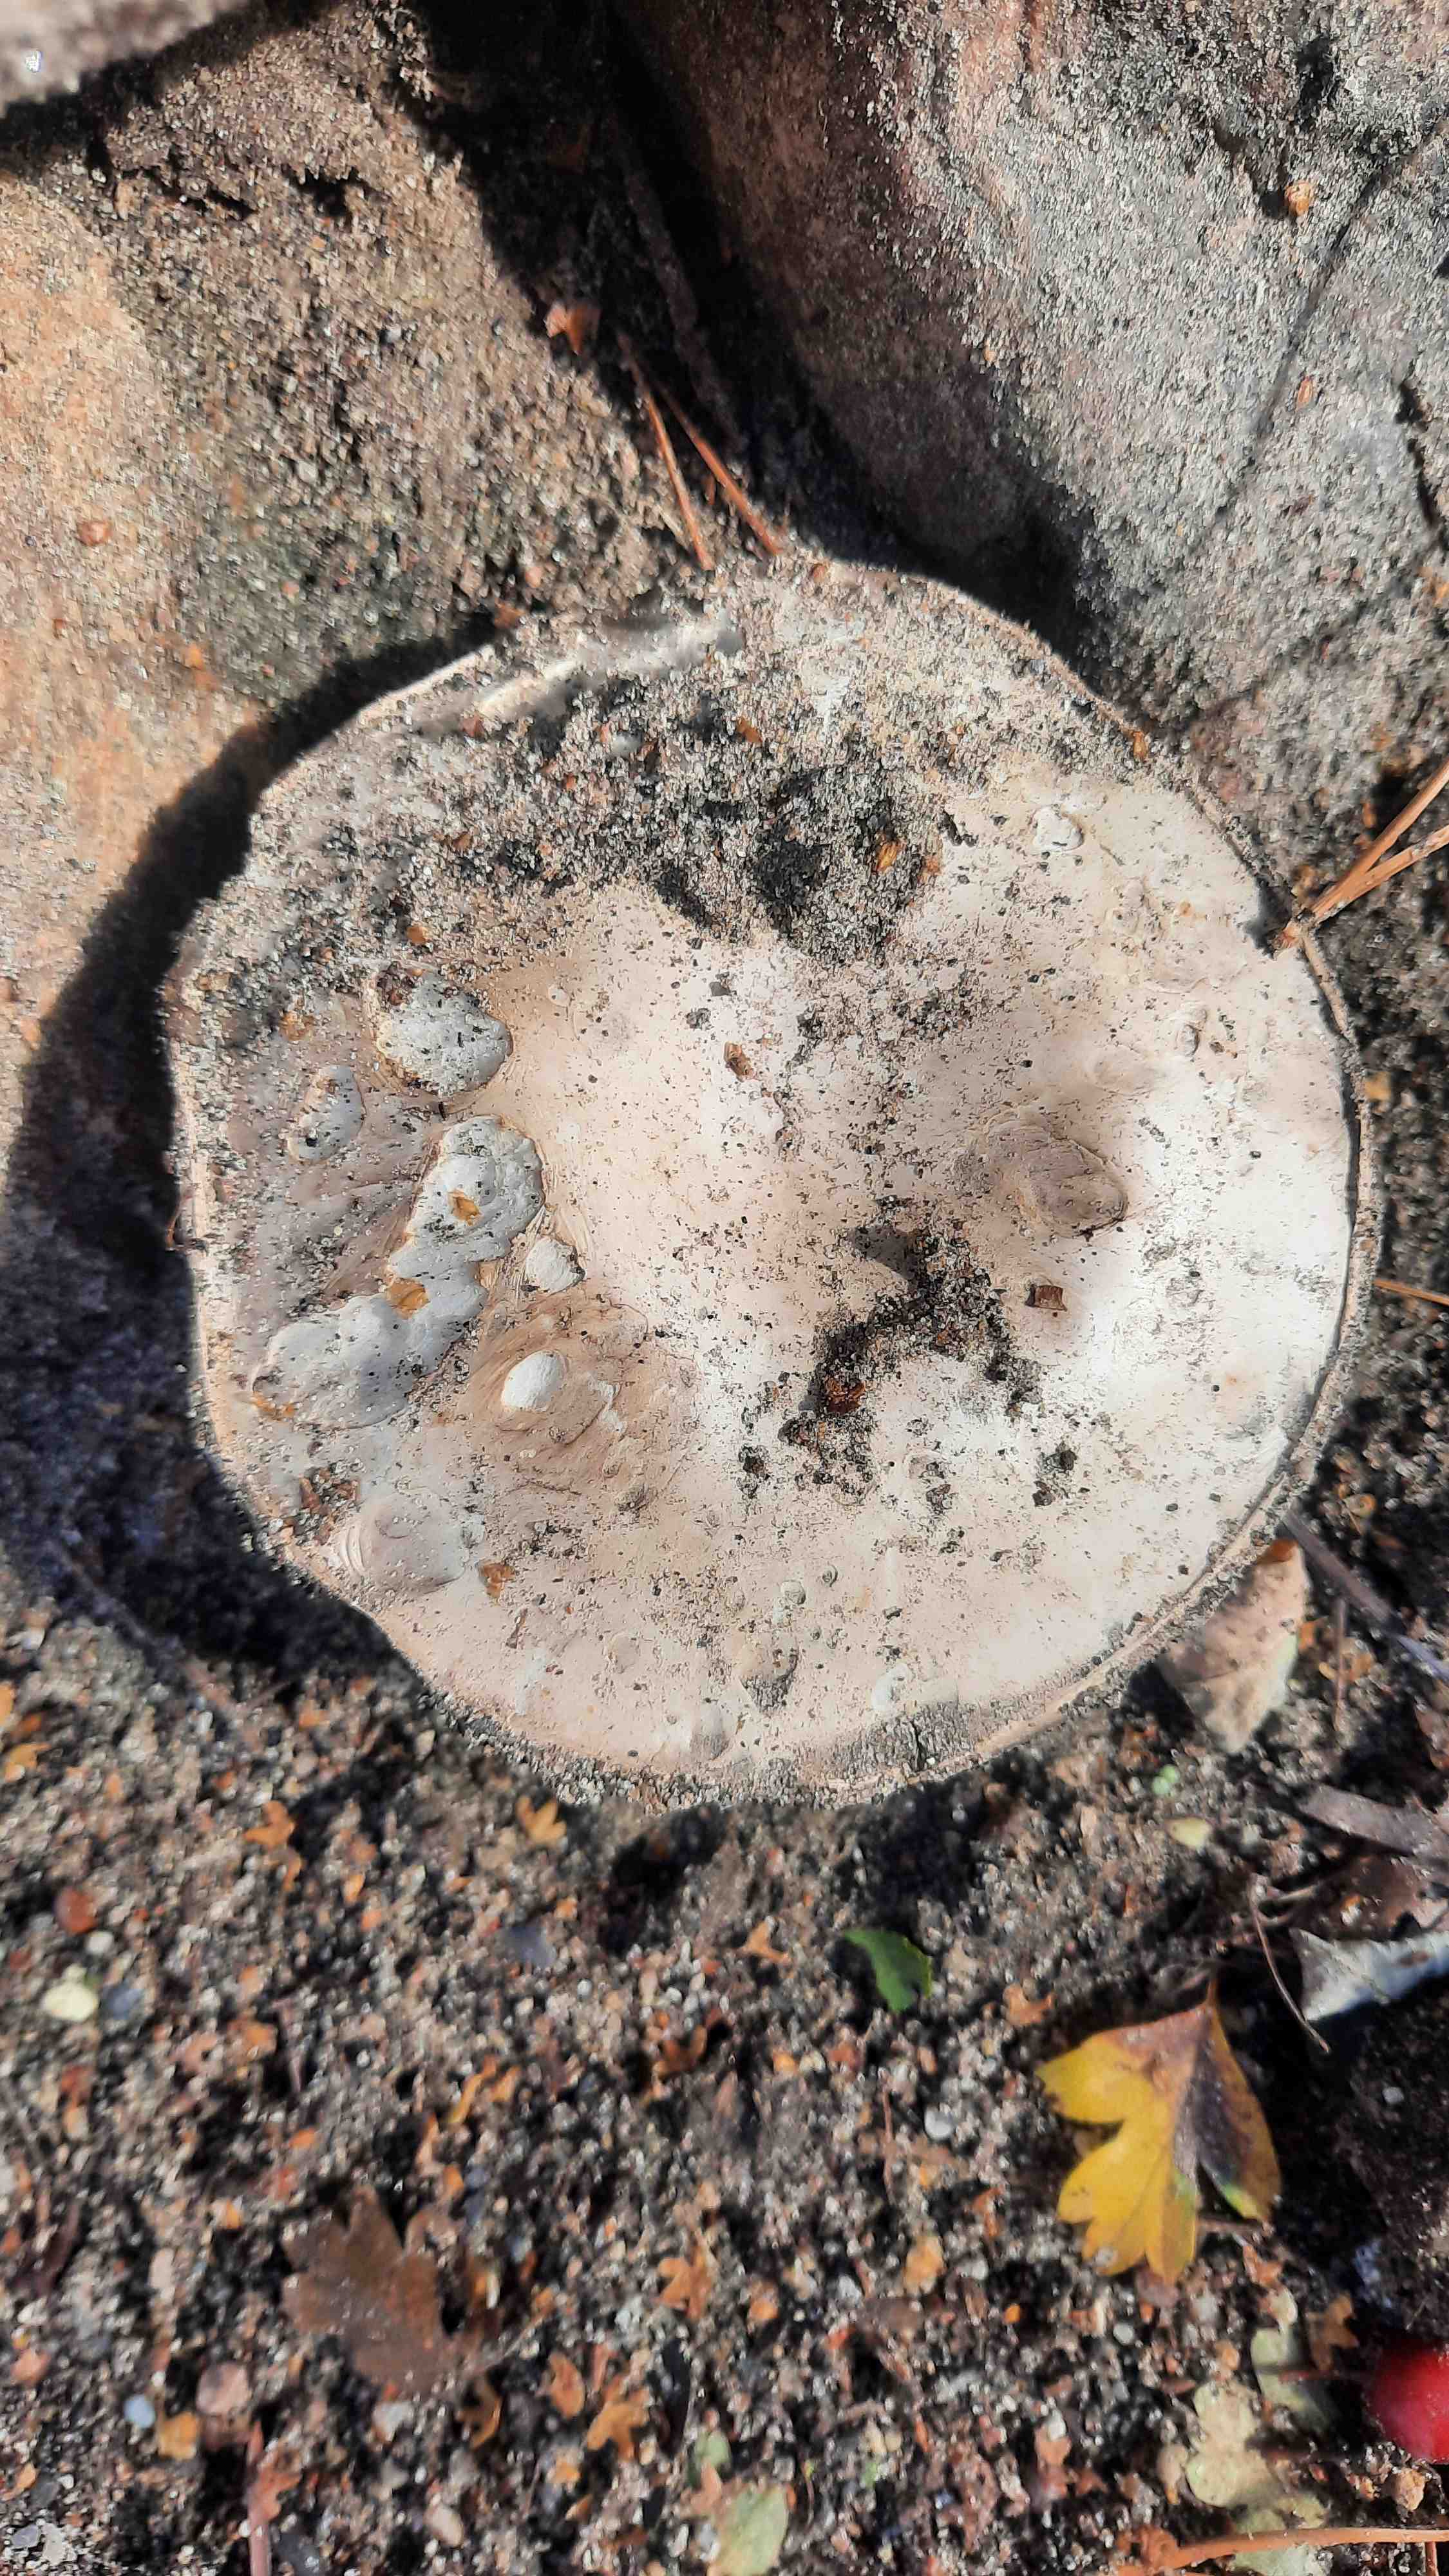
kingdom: Fungi
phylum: Basidiomycota
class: Agaricomycetes
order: Agaricales
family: Agaricaceae
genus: Agaricus
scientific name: Agaricus bitorquis
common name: vej-champignon
